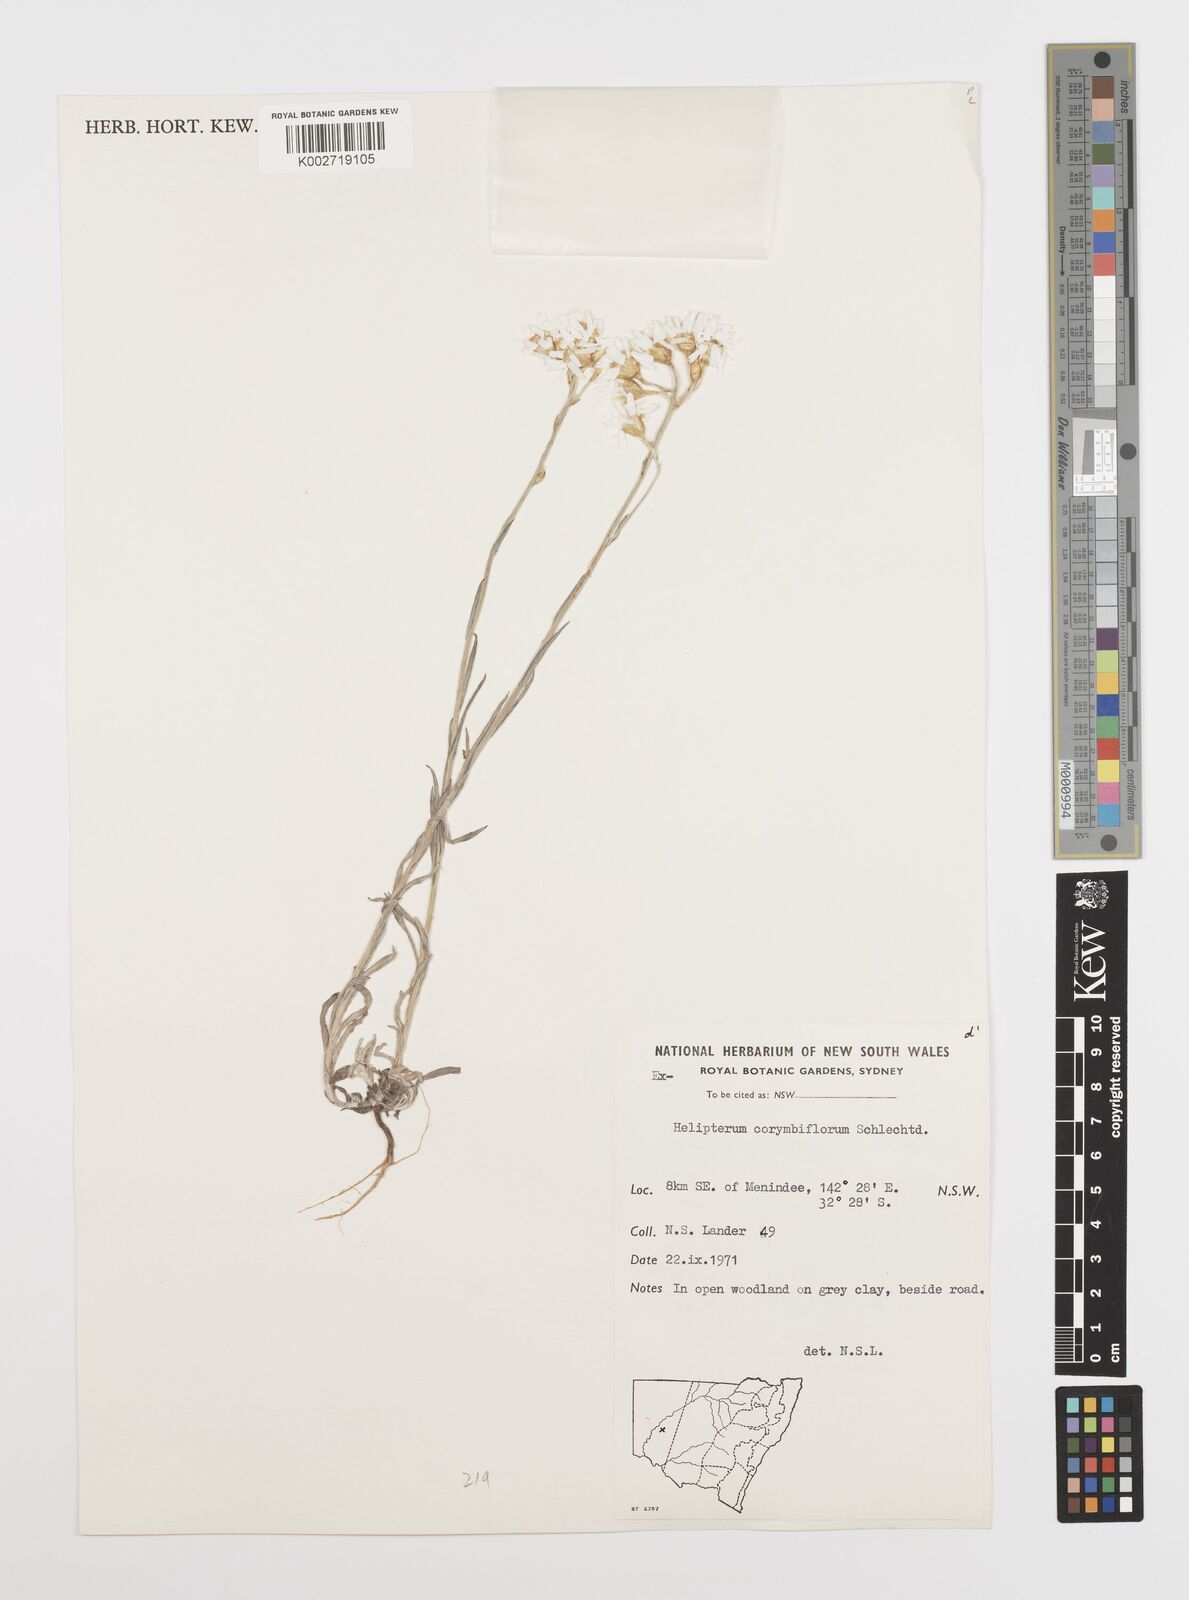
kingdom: Plantae
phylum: Tracheophyta
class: Magnoliopsida
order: Asterales
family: Asteraceae
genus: Rhodanthe
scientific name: Rhodanthe corymbiflora
